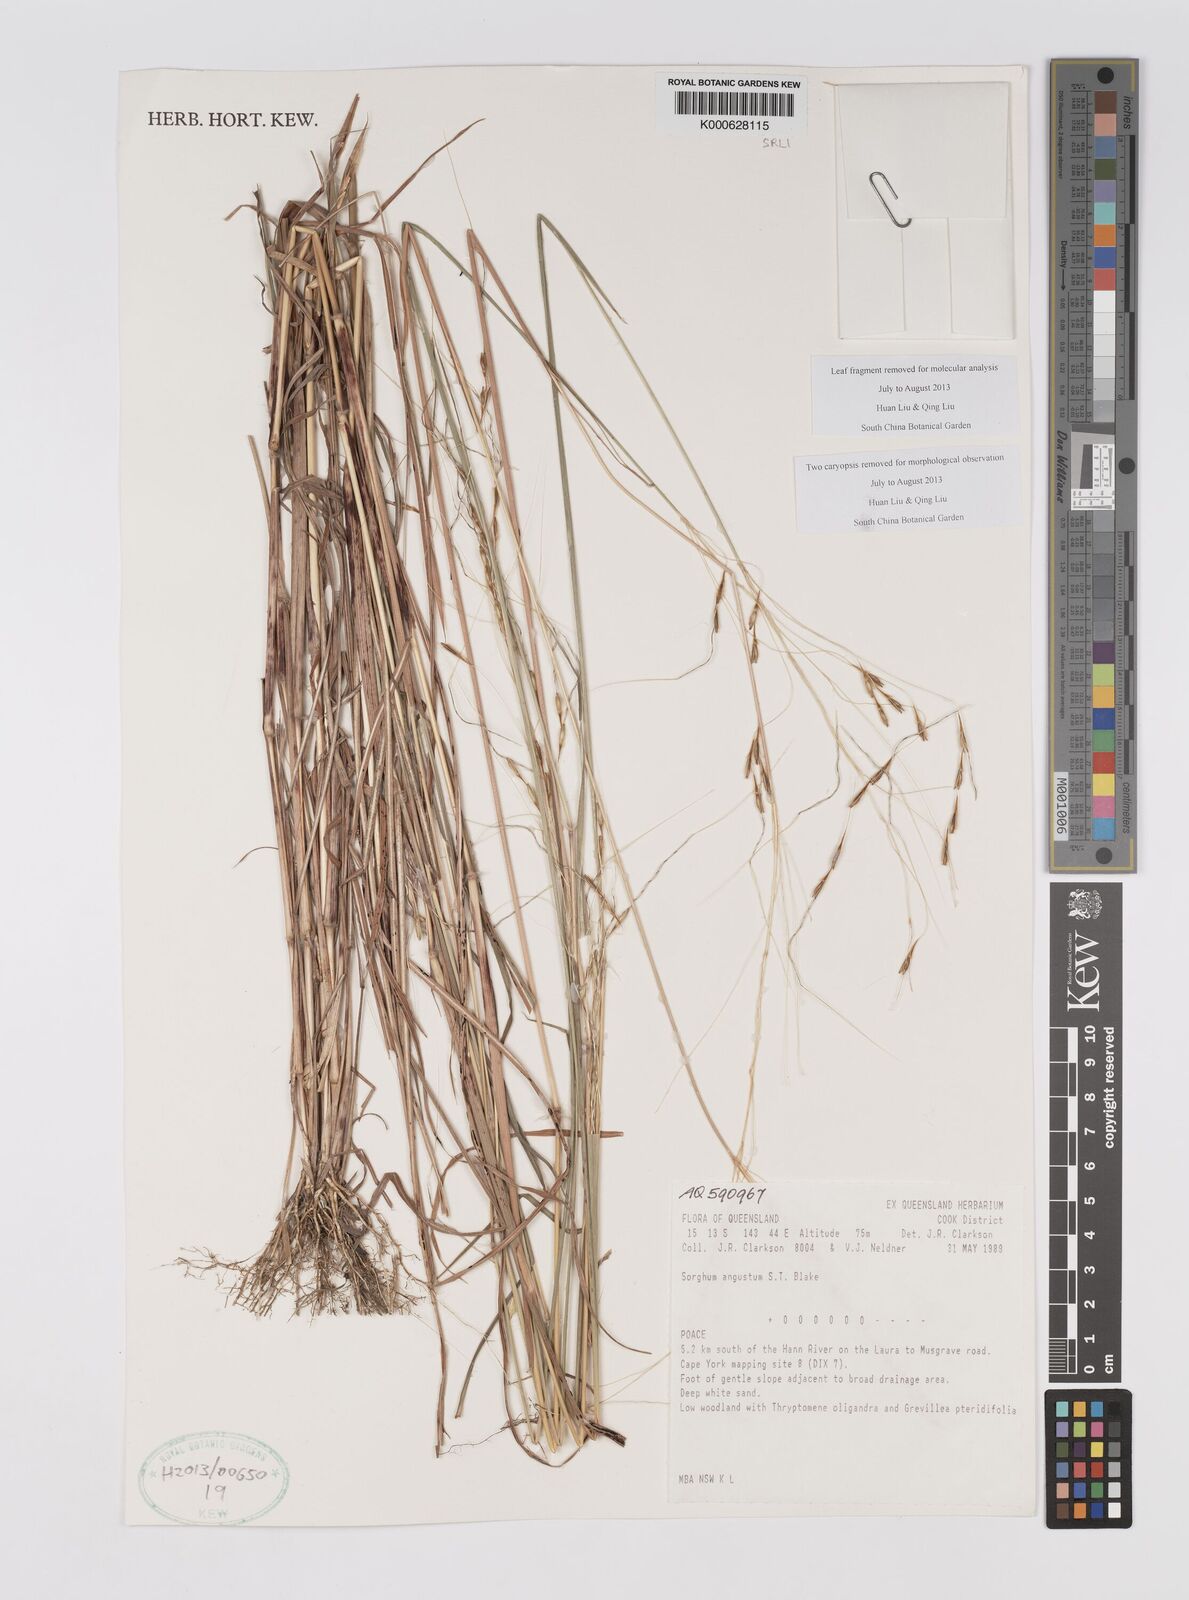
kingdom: Plantae
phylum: Tracheophyta
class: Liliopsida
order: Poales
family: Poaceae
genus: Sarga
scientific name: Sarga angusta
